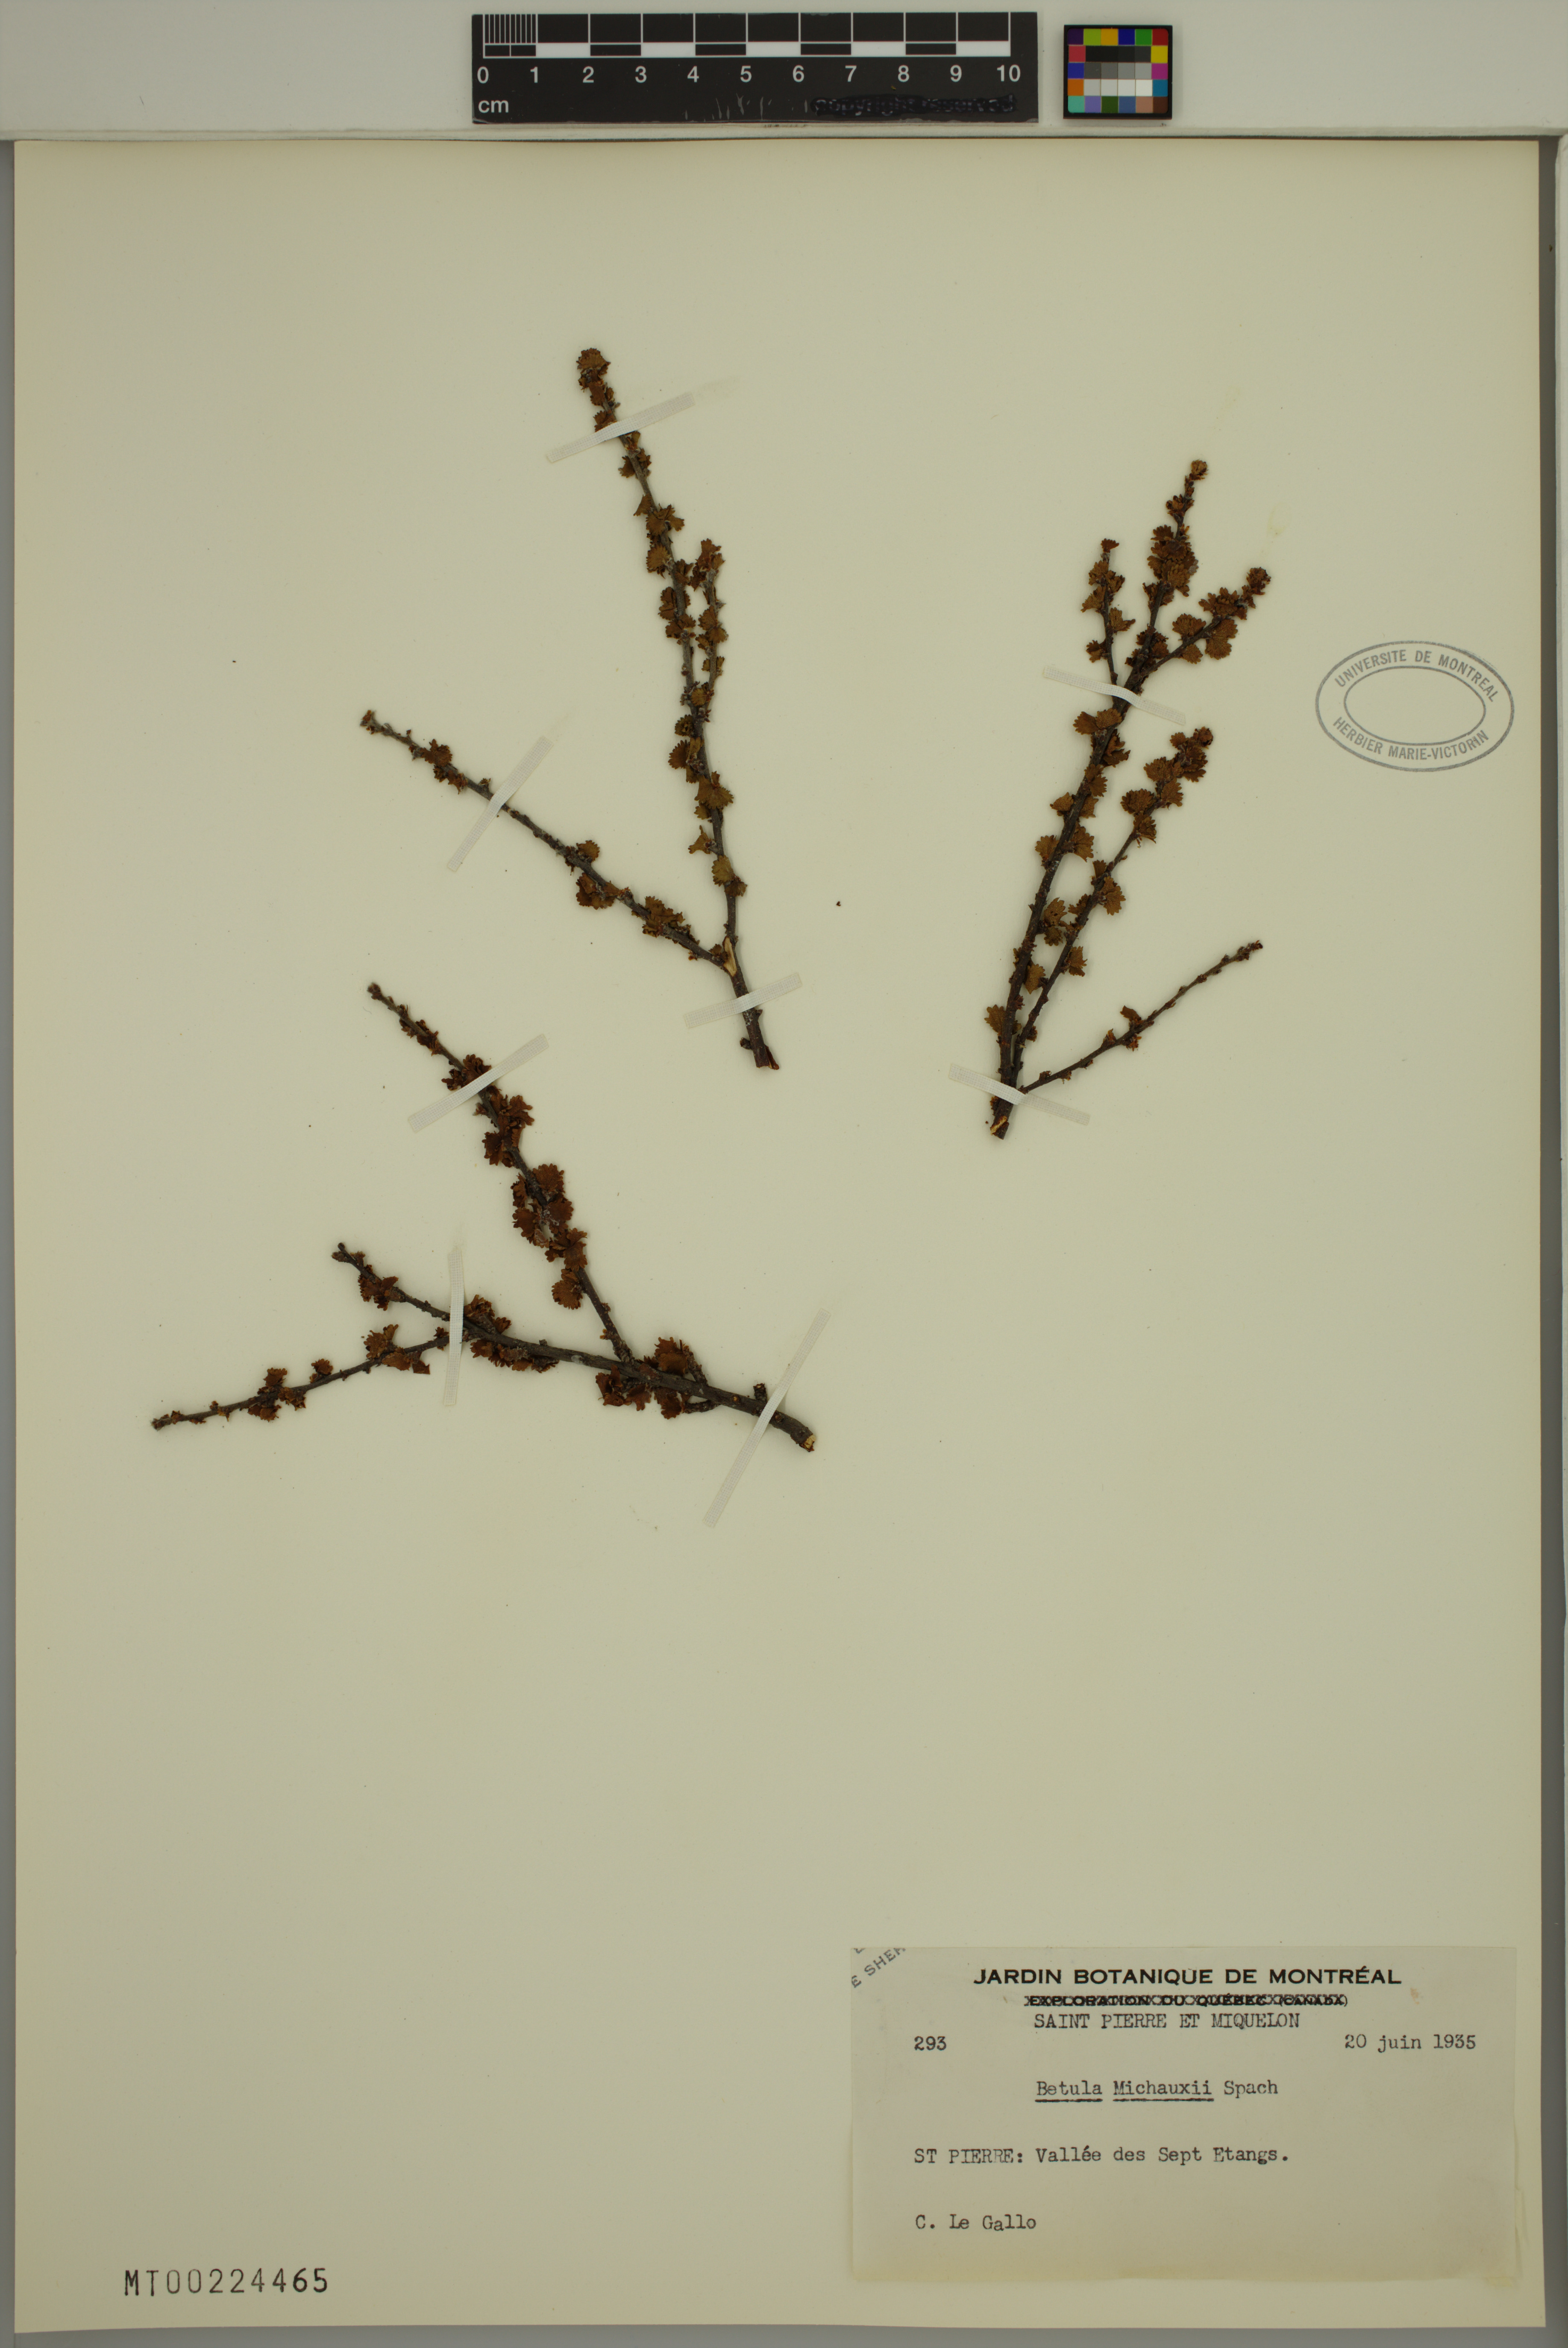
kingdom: Plantae
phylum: Tracheophyta
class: Magnoliopsida
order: Fagales
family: Betulaceae
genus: Betula
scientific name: Betula michauxii
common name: Newfoundland dwarf birch
